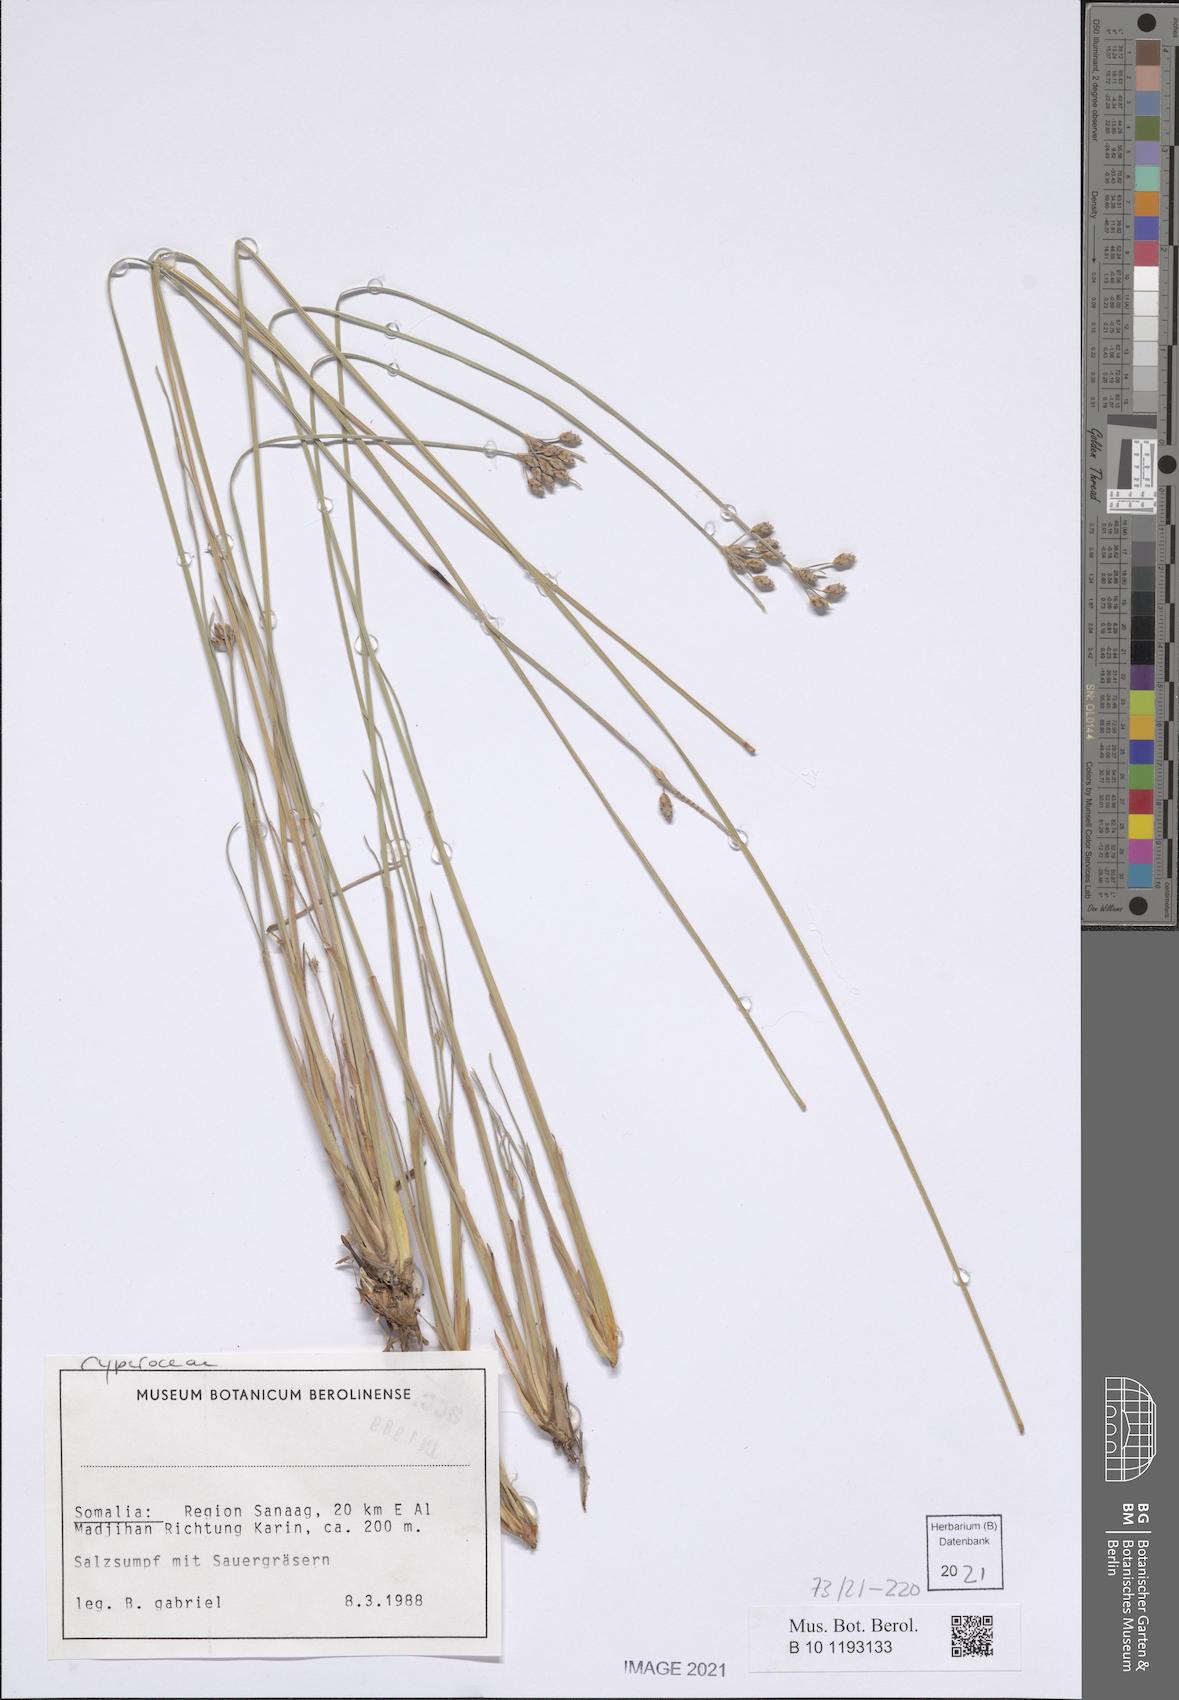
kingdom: Plantae
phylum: Tracheophyta
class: Liliopsida
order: Poales
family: Cyperaceae
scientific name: Cyperaceae
